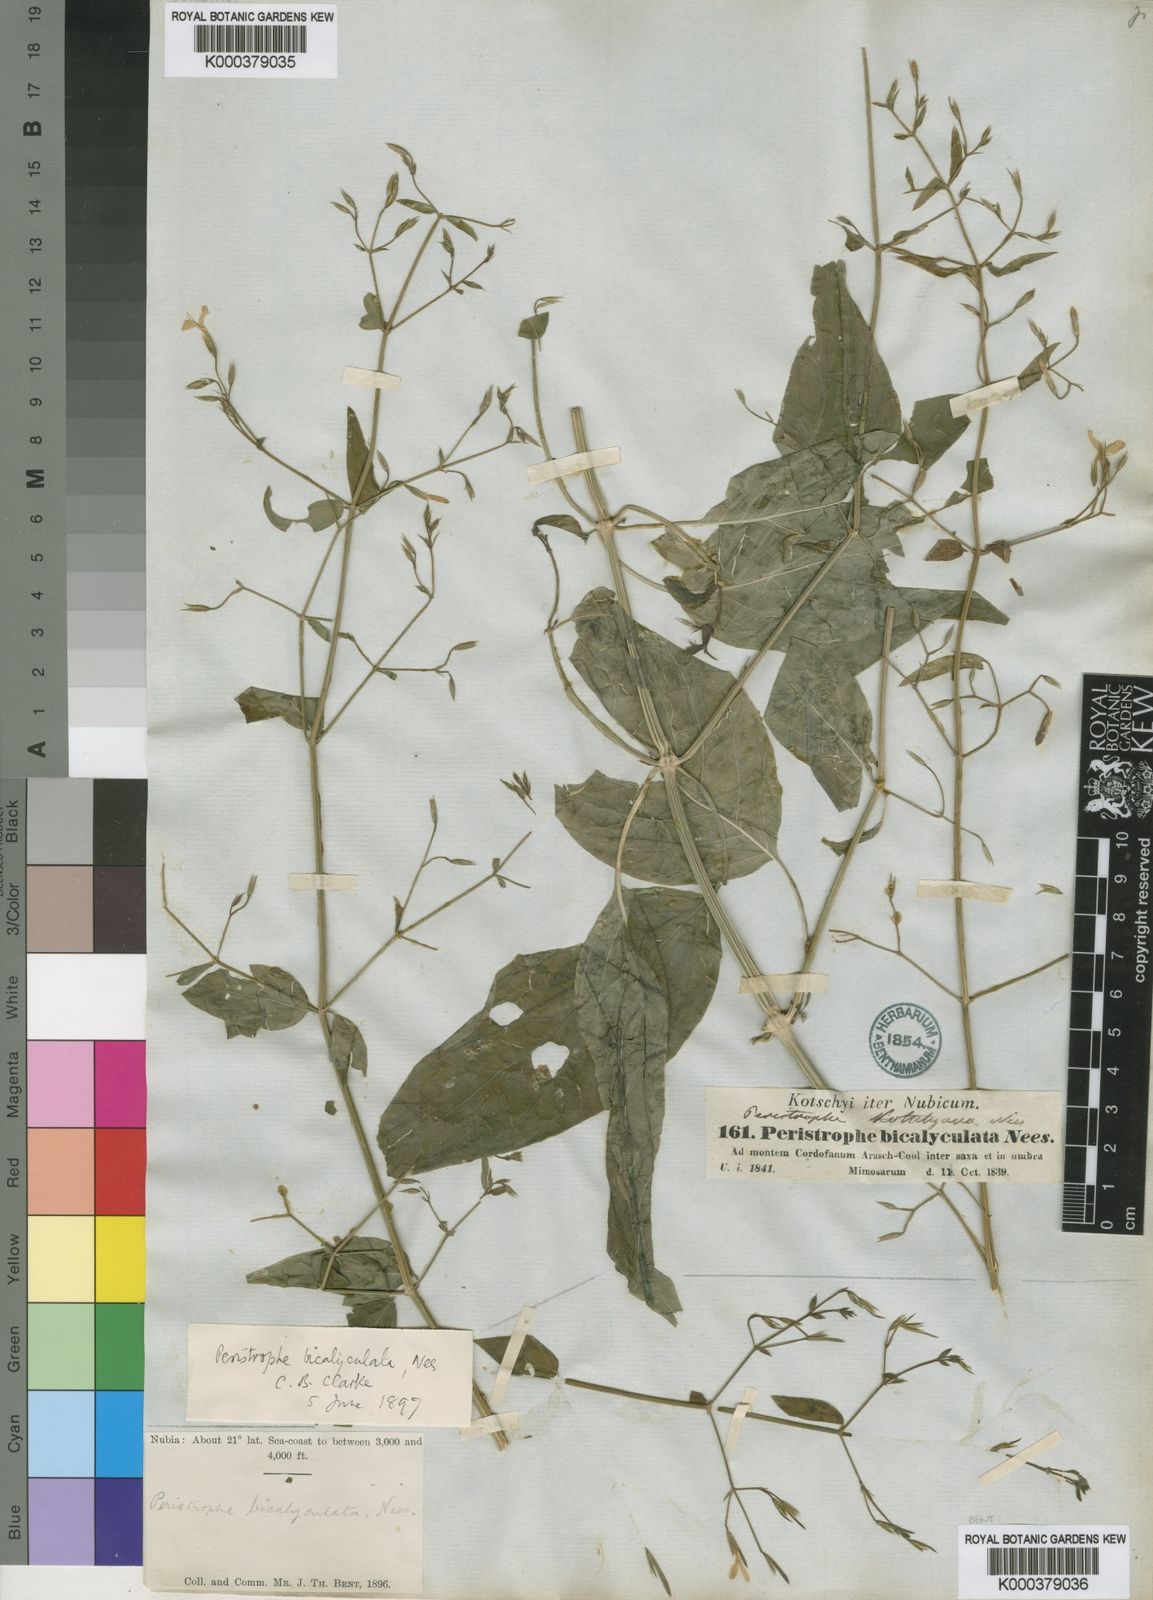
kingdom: Plantae
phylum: Tracheophyta
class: Magnoliopsida
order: Lamiales
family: Acanthaceae
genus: Dicliptera
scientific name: Dicliptera paniculata
